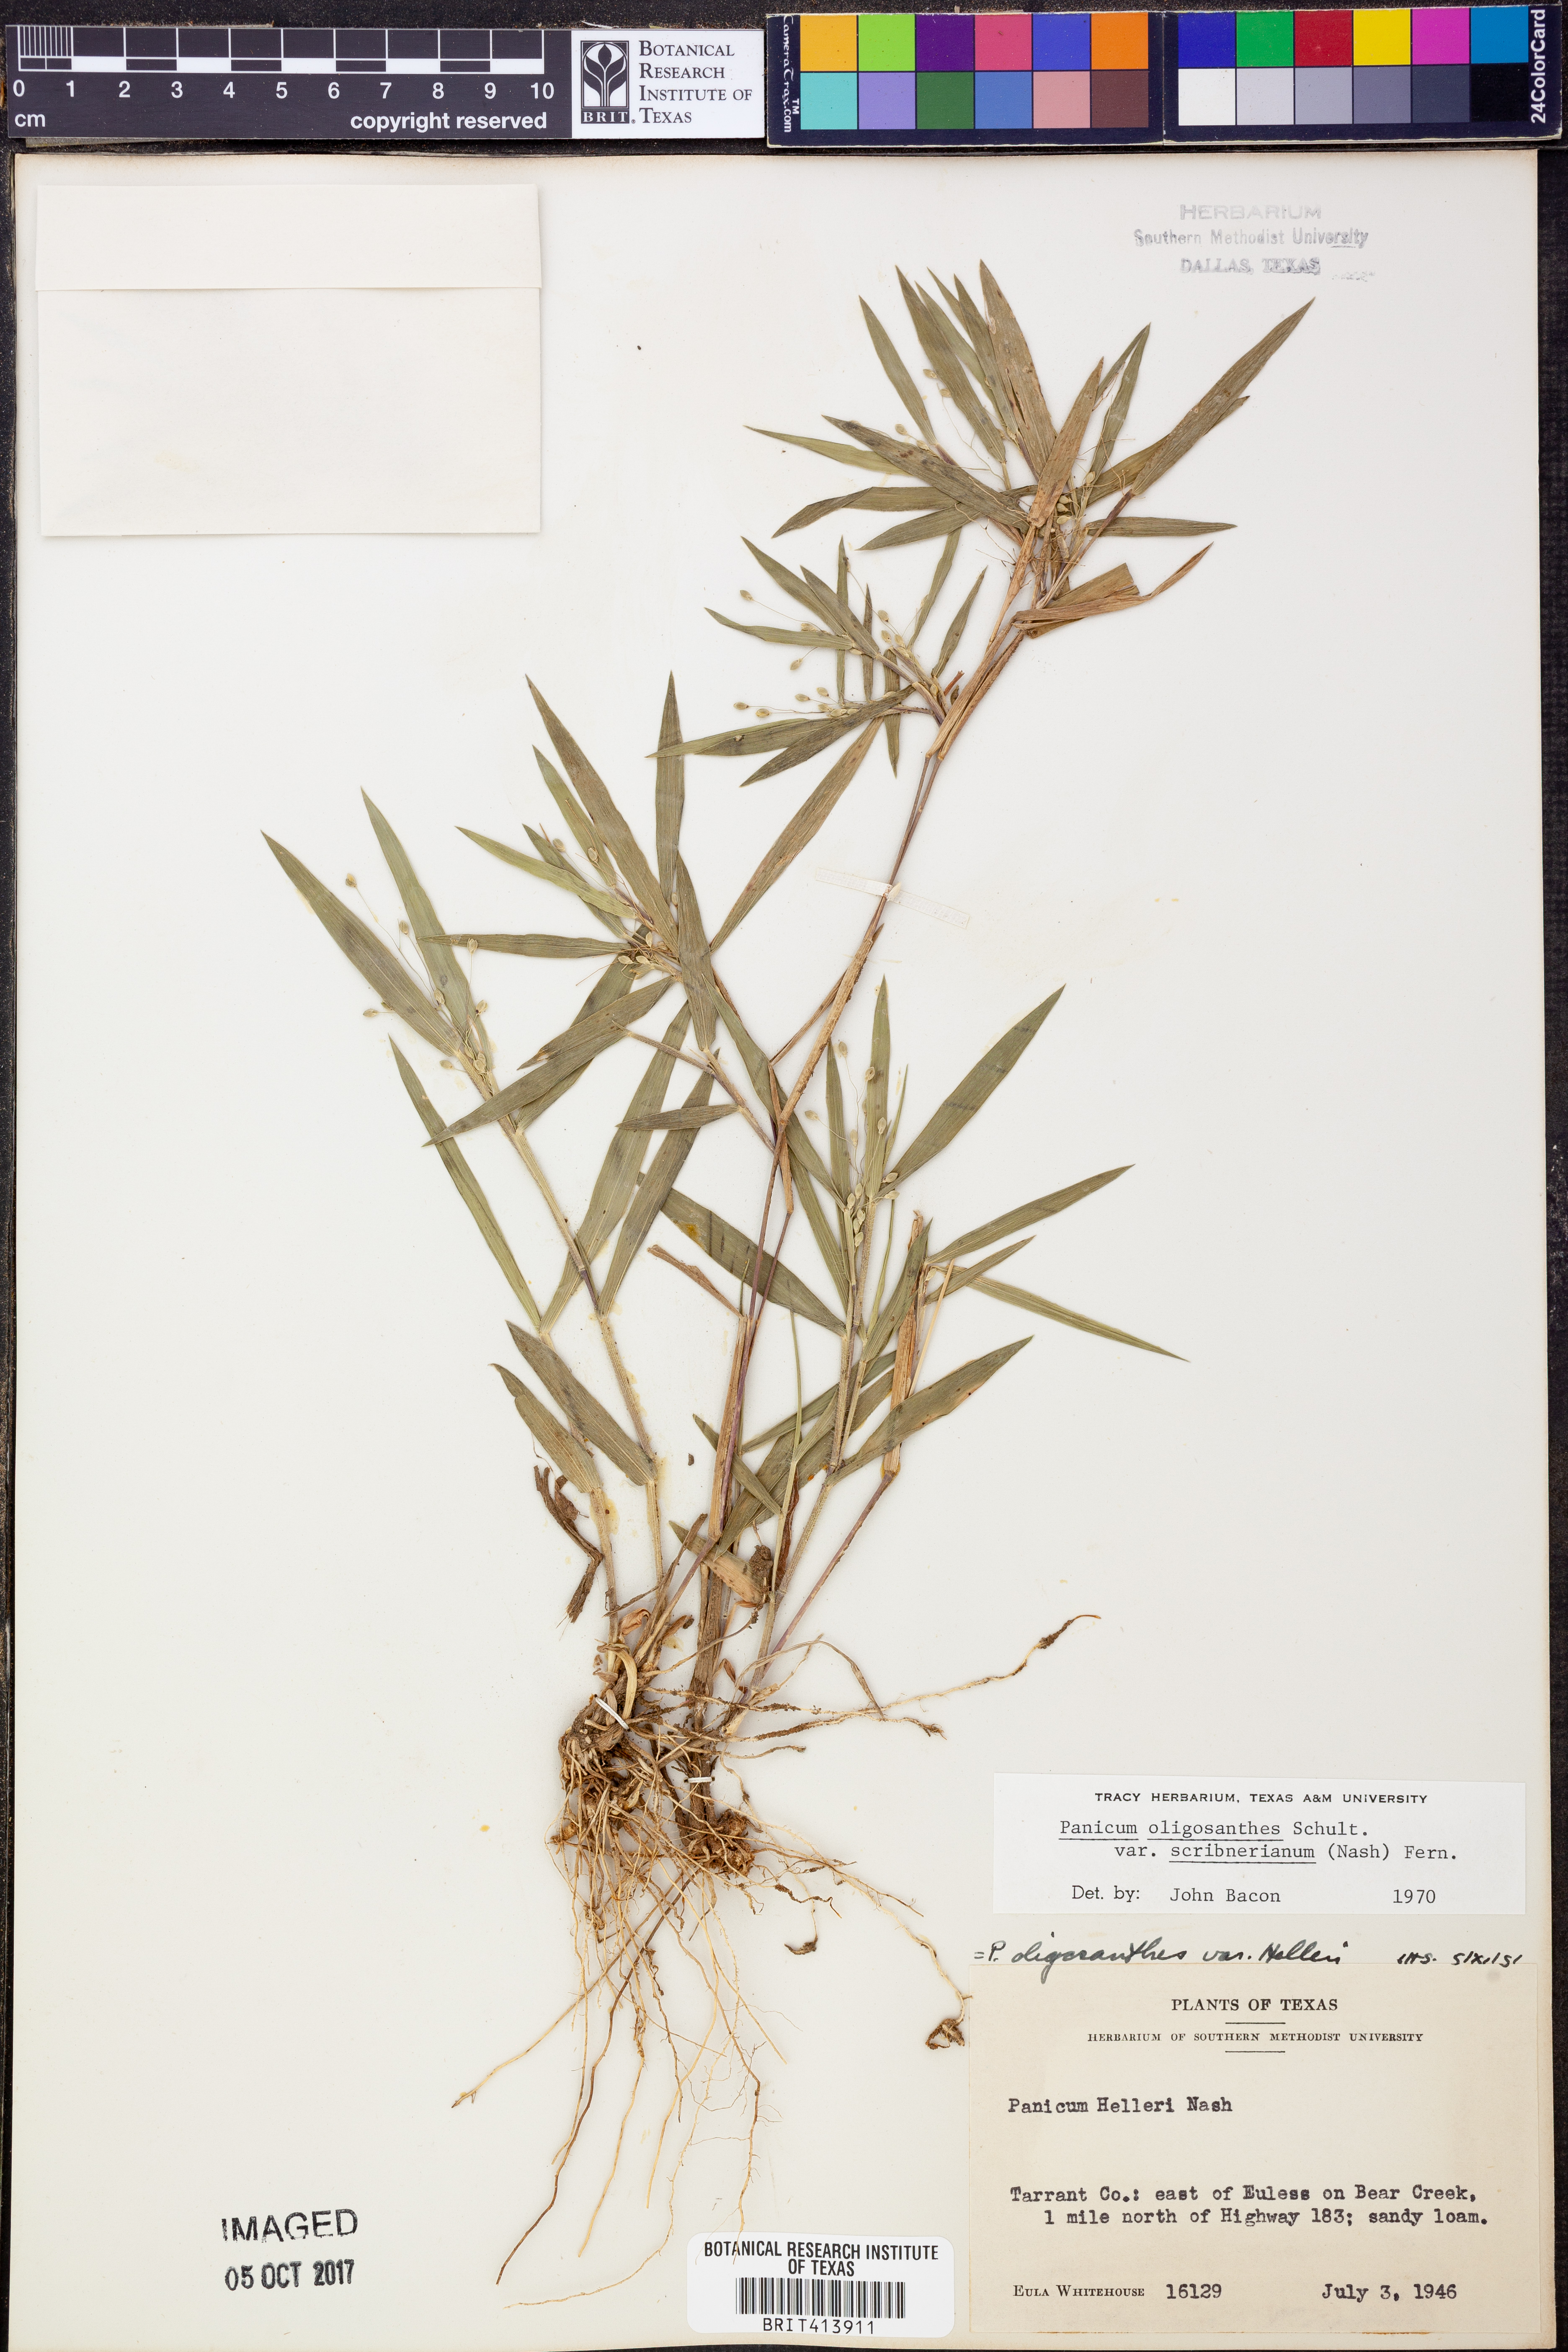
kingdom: Plantae
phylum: Tracheophyta
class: Liliopsida
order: Poales
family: Poaceae
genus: Dichanthelium
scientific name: Dichanthelium scribnerianum
